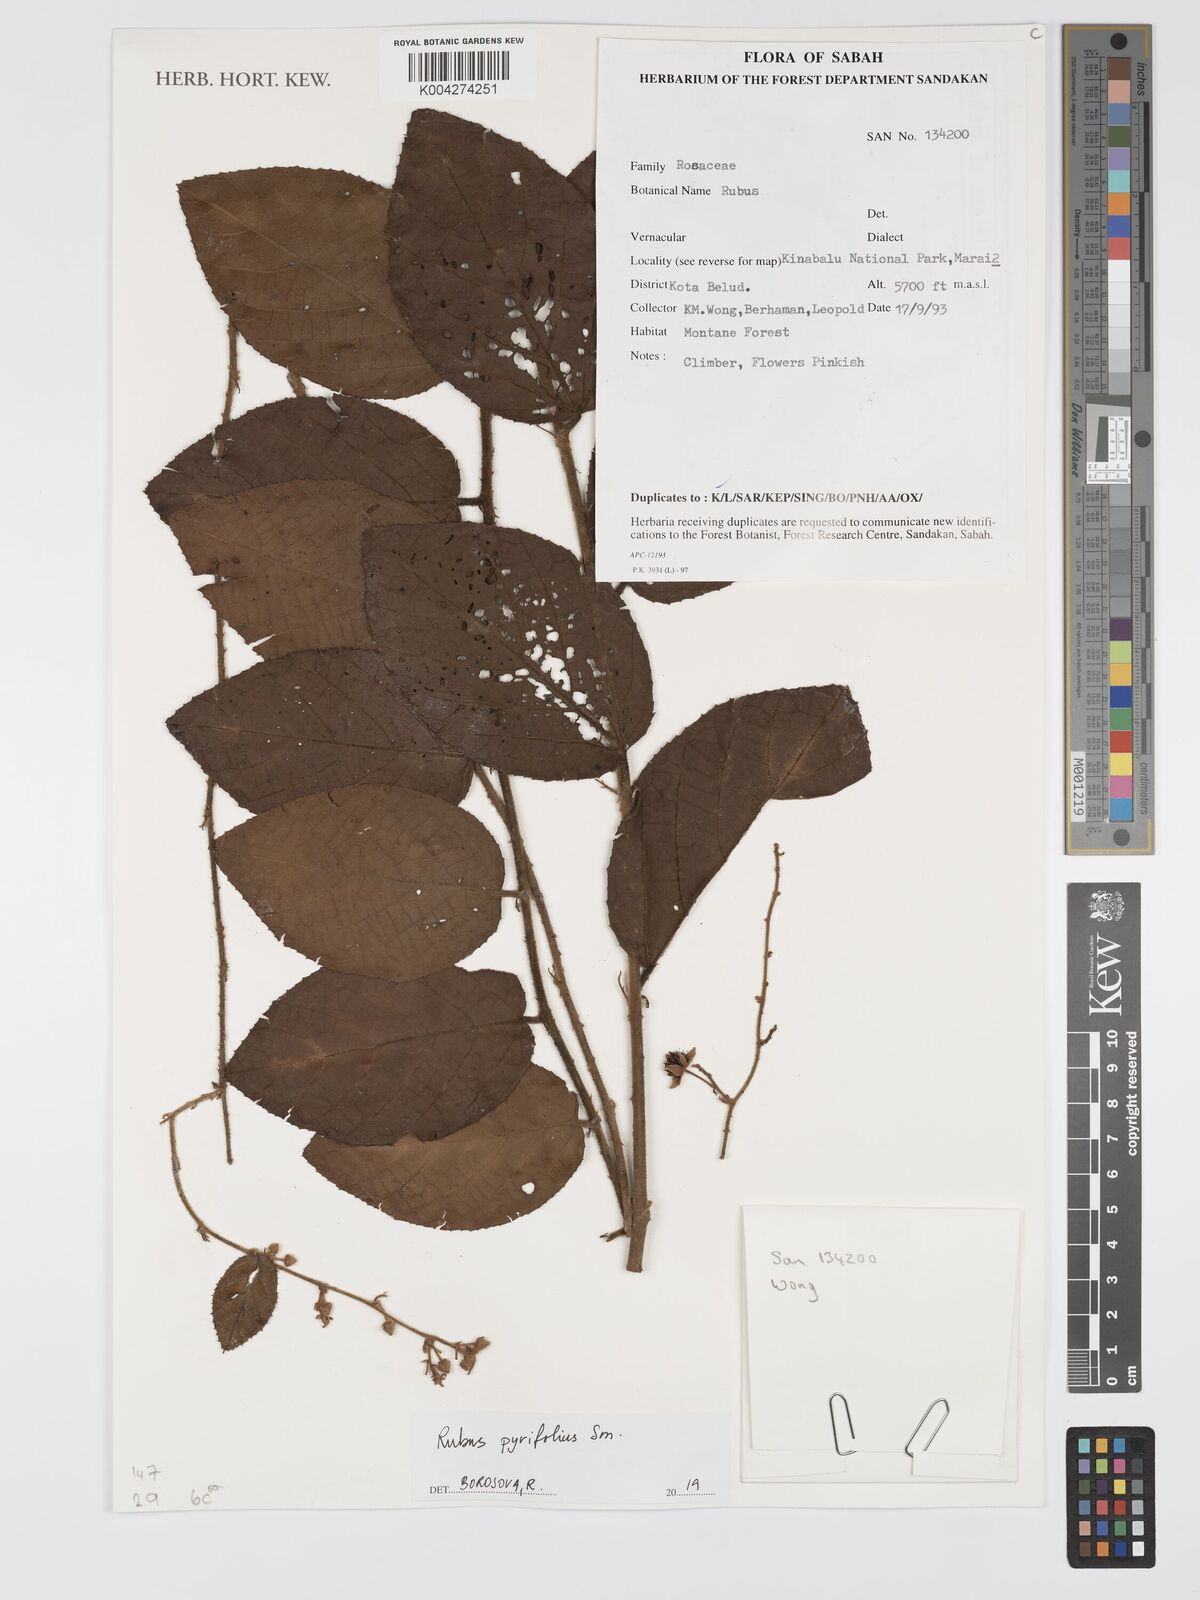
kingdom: Plantae
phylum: Tracheophyta
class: Magnoliopsida
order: Rosales
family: Rosaceae
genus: Rubus
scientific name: Rubus pirifolius
